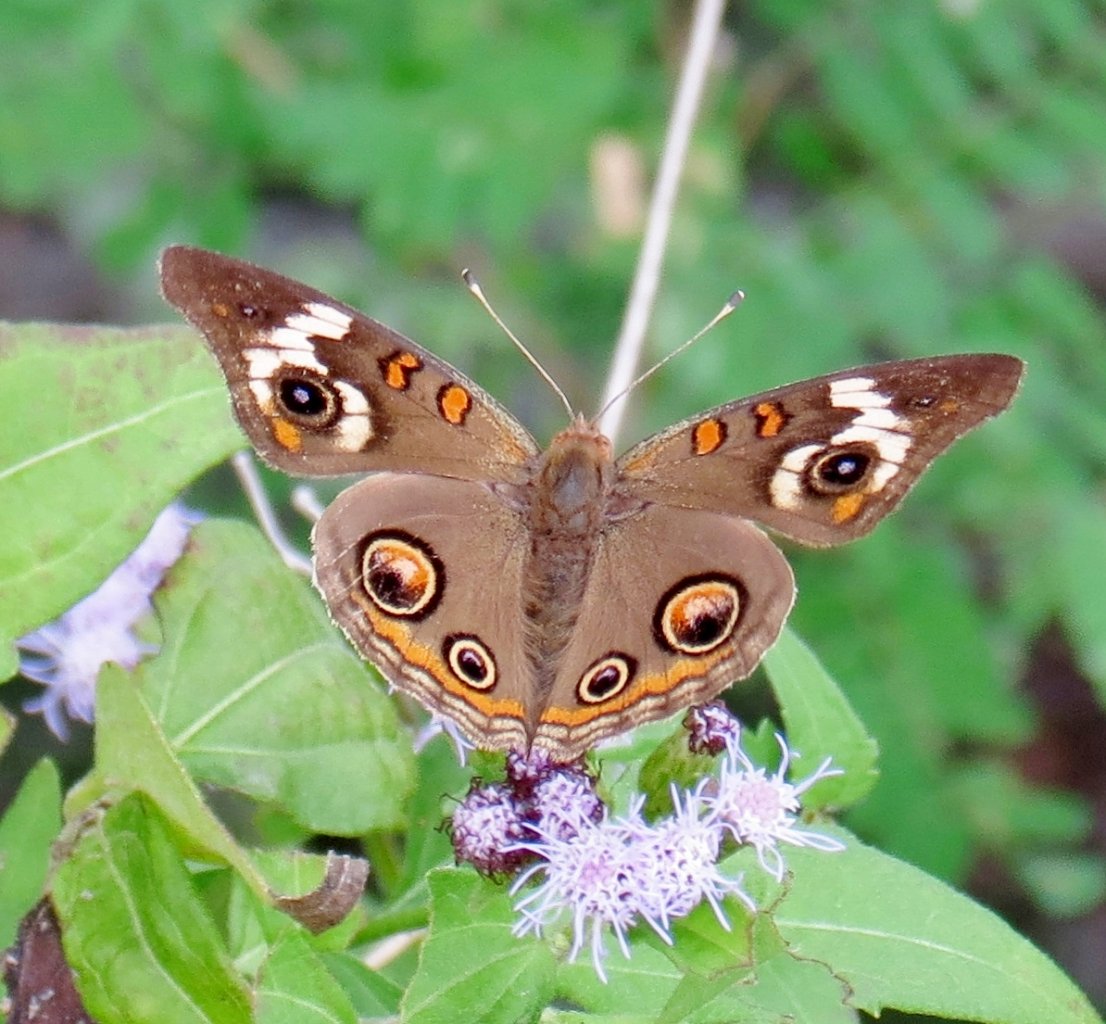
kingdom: Animalia
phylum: Arthropoda
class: Insecta
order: Lepidoptera
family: Nymphalidae
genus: Junonia
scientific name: Junonia coenia
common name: Common Buckeye
